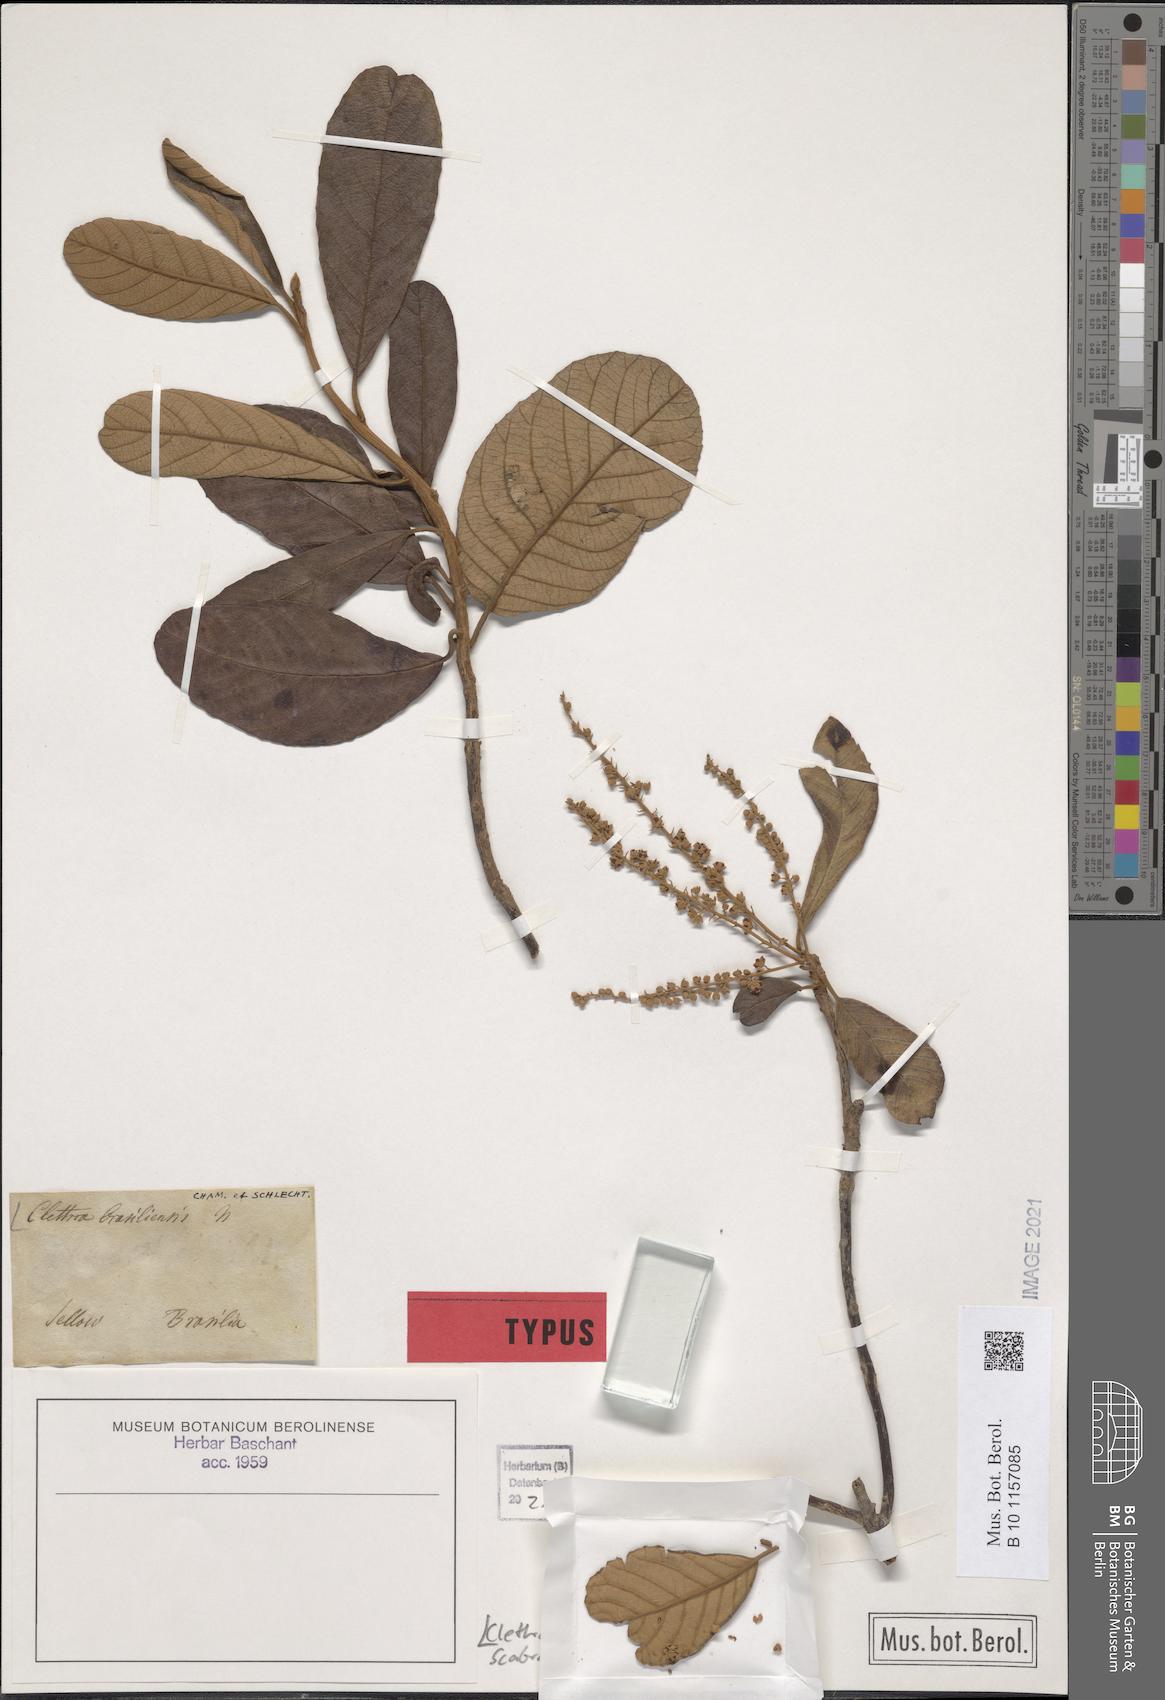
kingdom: Plantae
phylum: Tracheophyta
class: Magnoliopsida
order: Ericales
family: Clethraceae
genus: Clethra
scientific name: Clethra scabra
